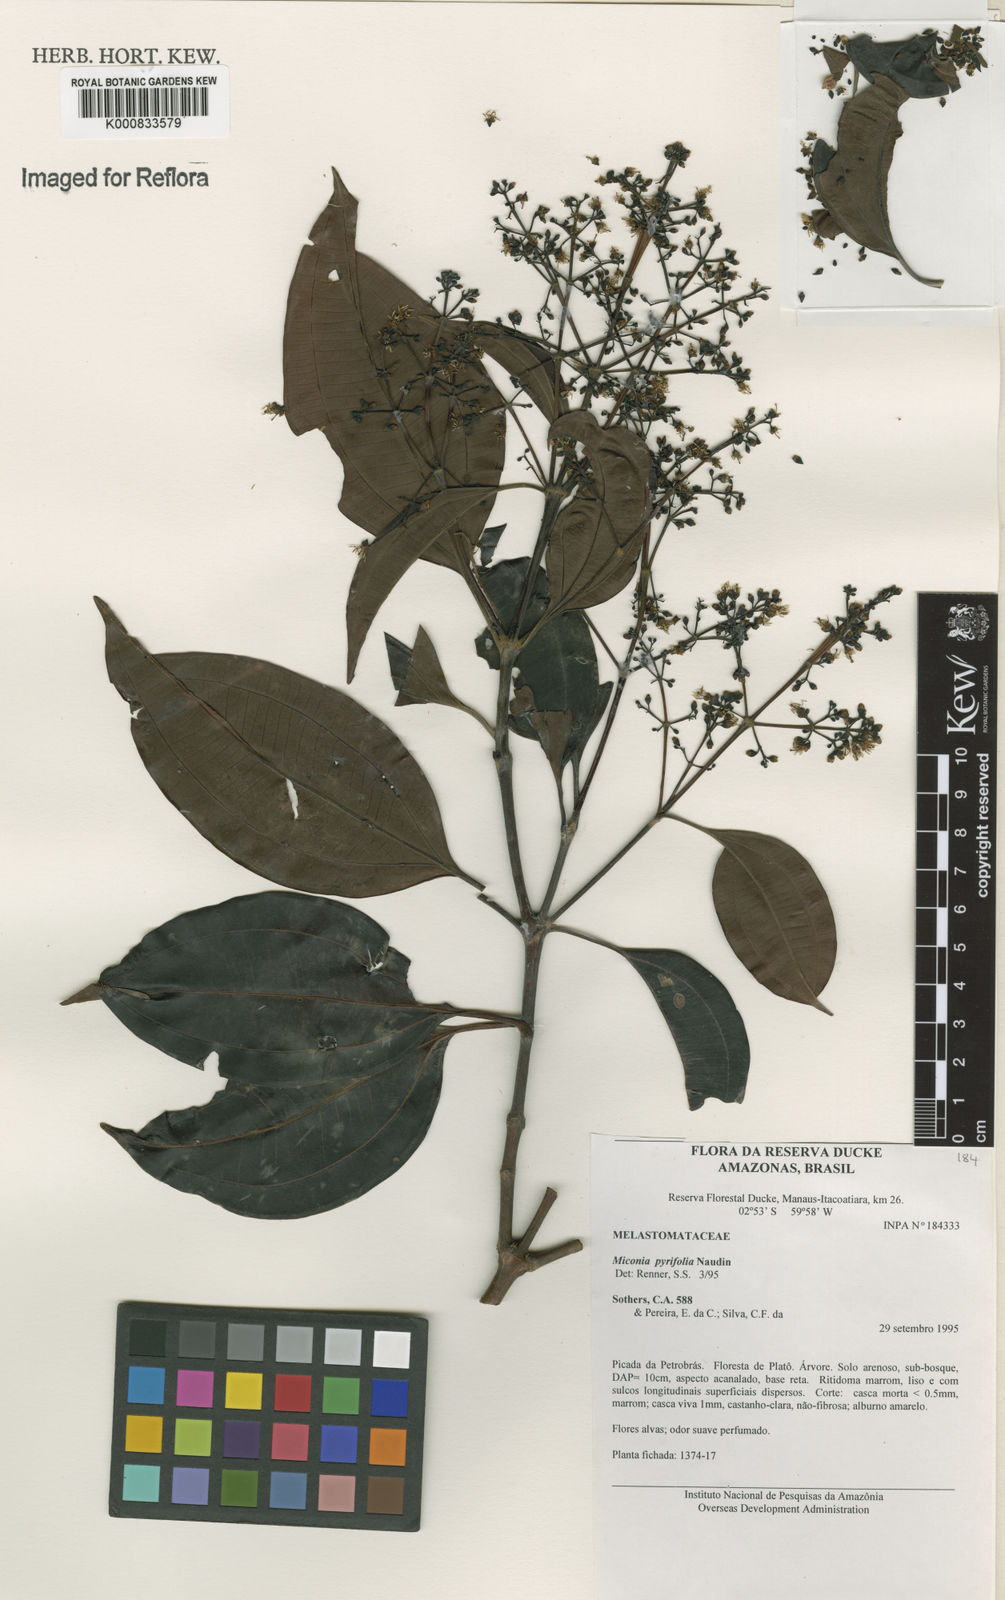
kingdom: Plantae
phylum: Tracheophyta
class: Magnoliopsida
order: Myrtales
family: Melastomataceae
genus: Miconia
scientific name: Miconia pyrifolia
